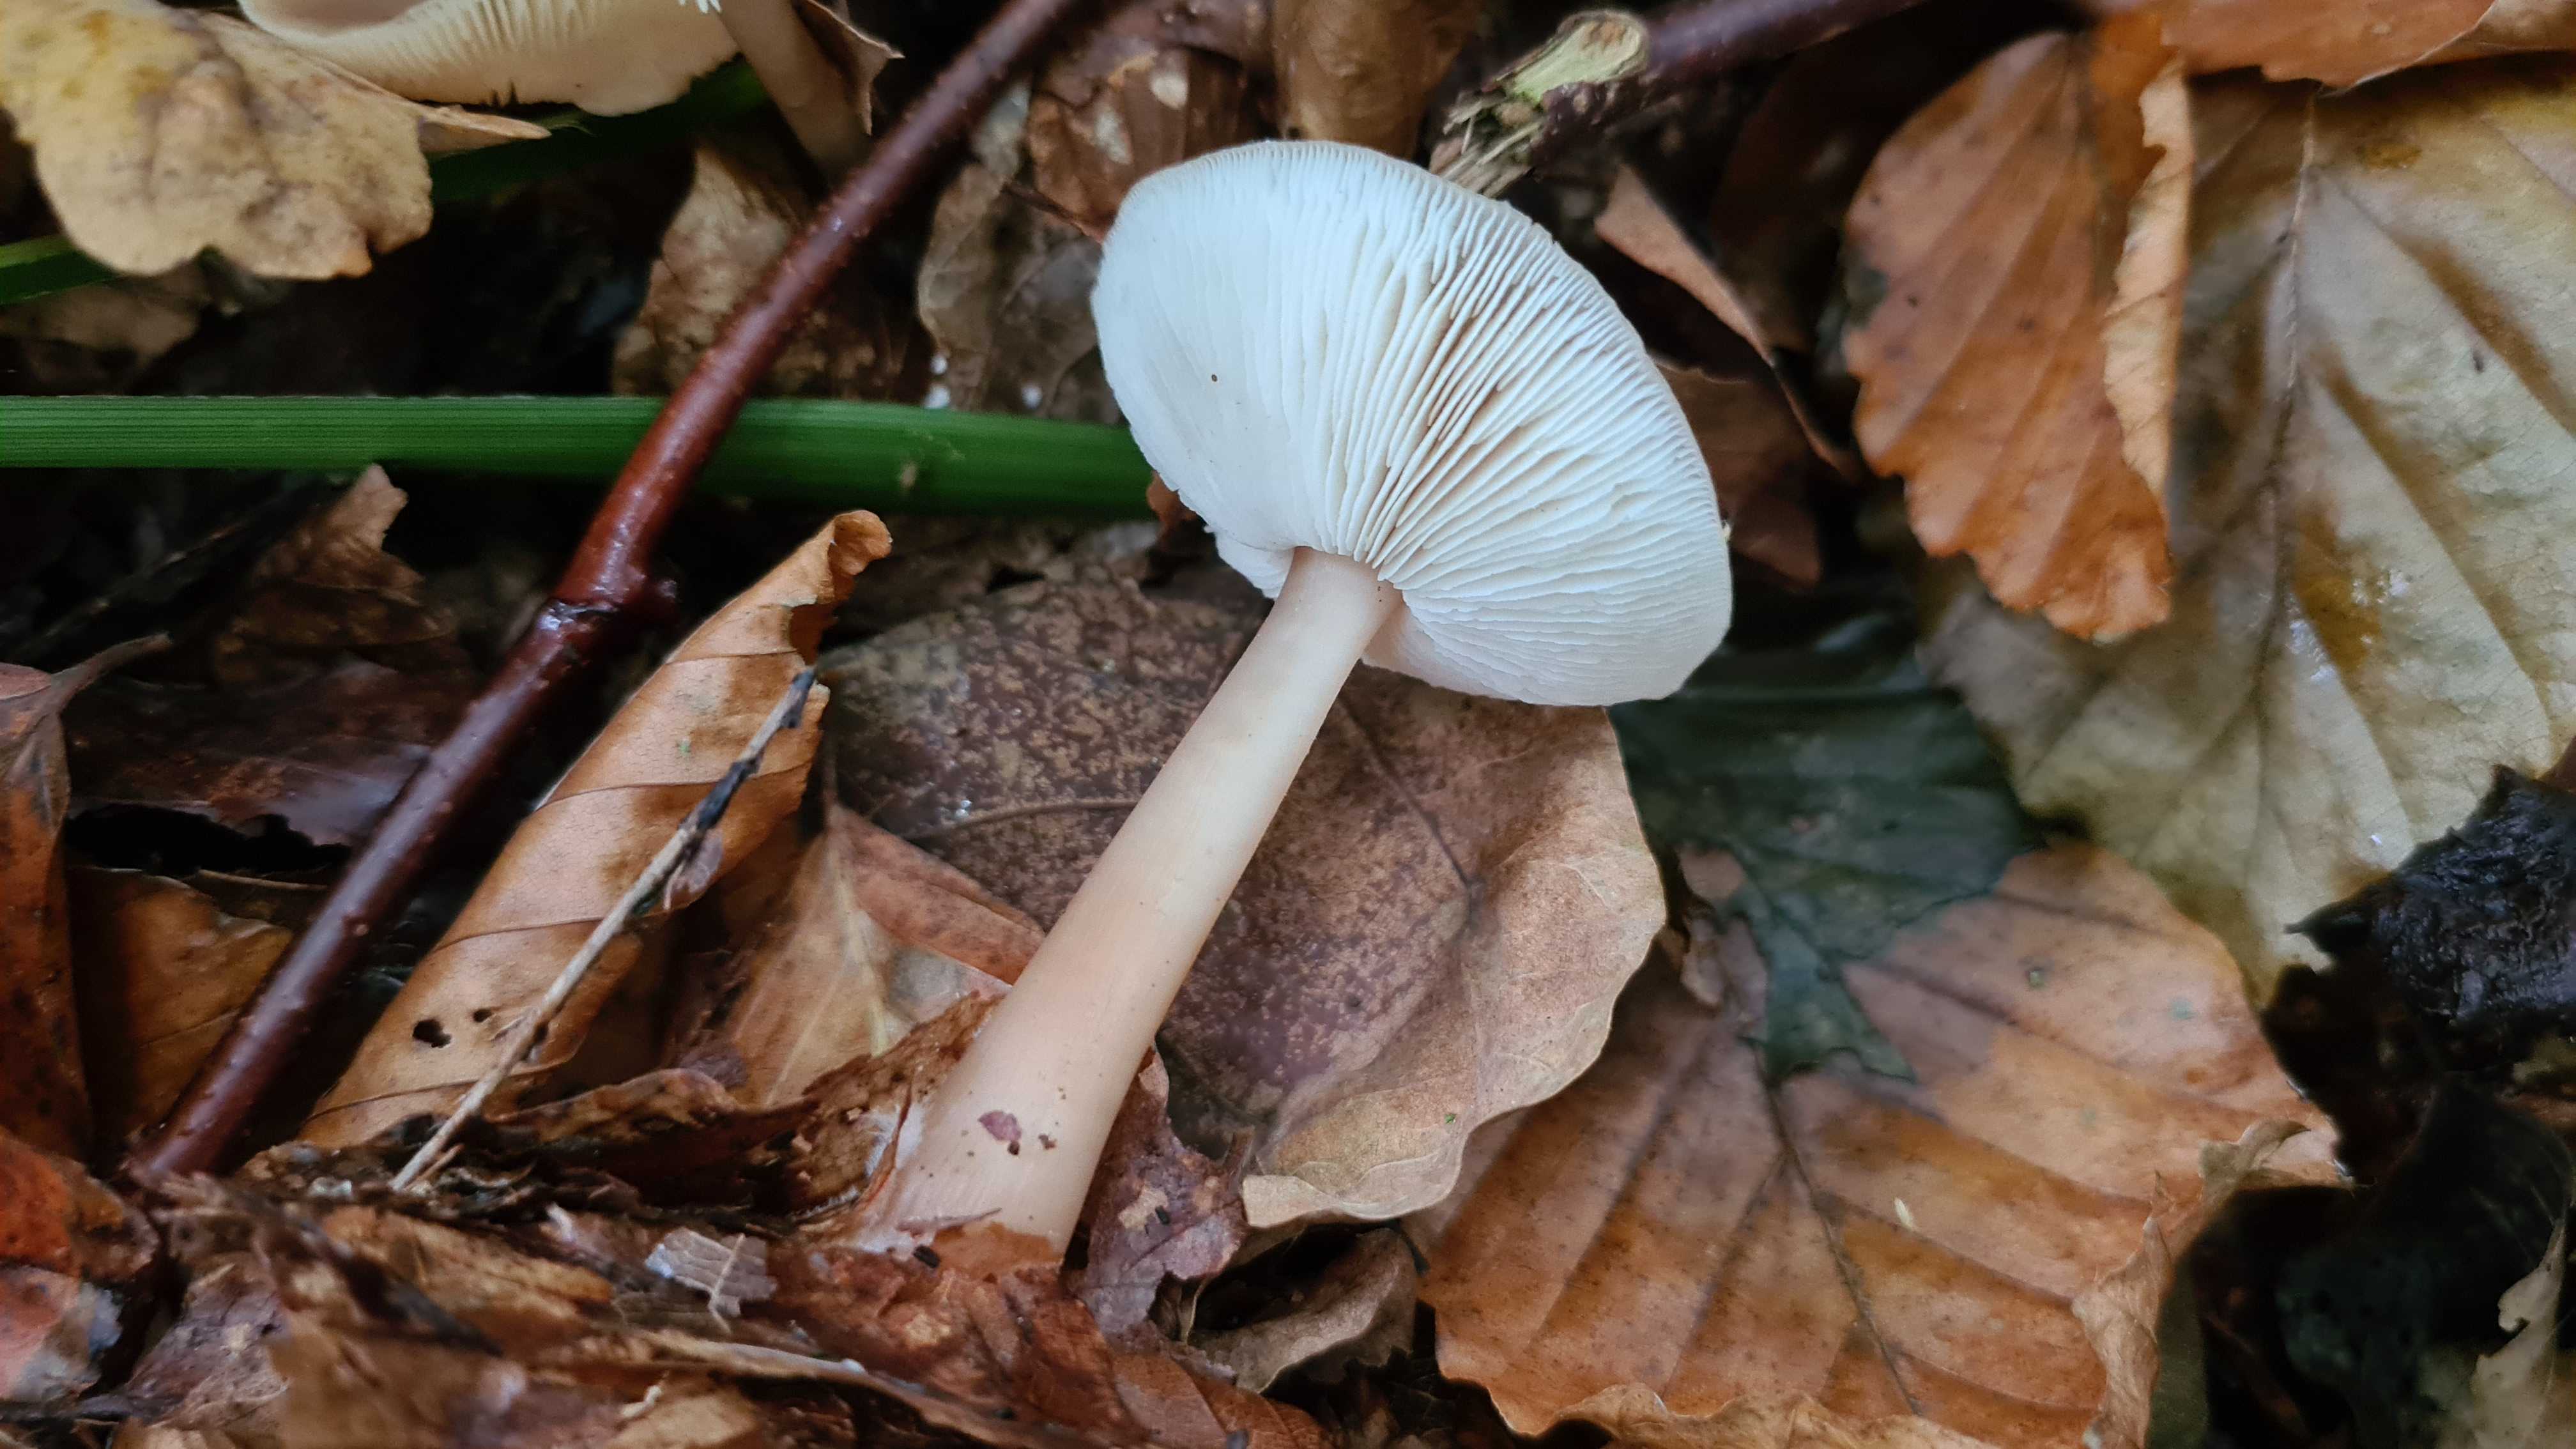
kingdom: Fungi
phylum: Basidiomycota
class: Agaricomycetes
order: Agaricales
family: Omphalotaceae
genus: Rhodocollybia
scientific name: Rhodocollybia asema
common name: horngrå fladhat
